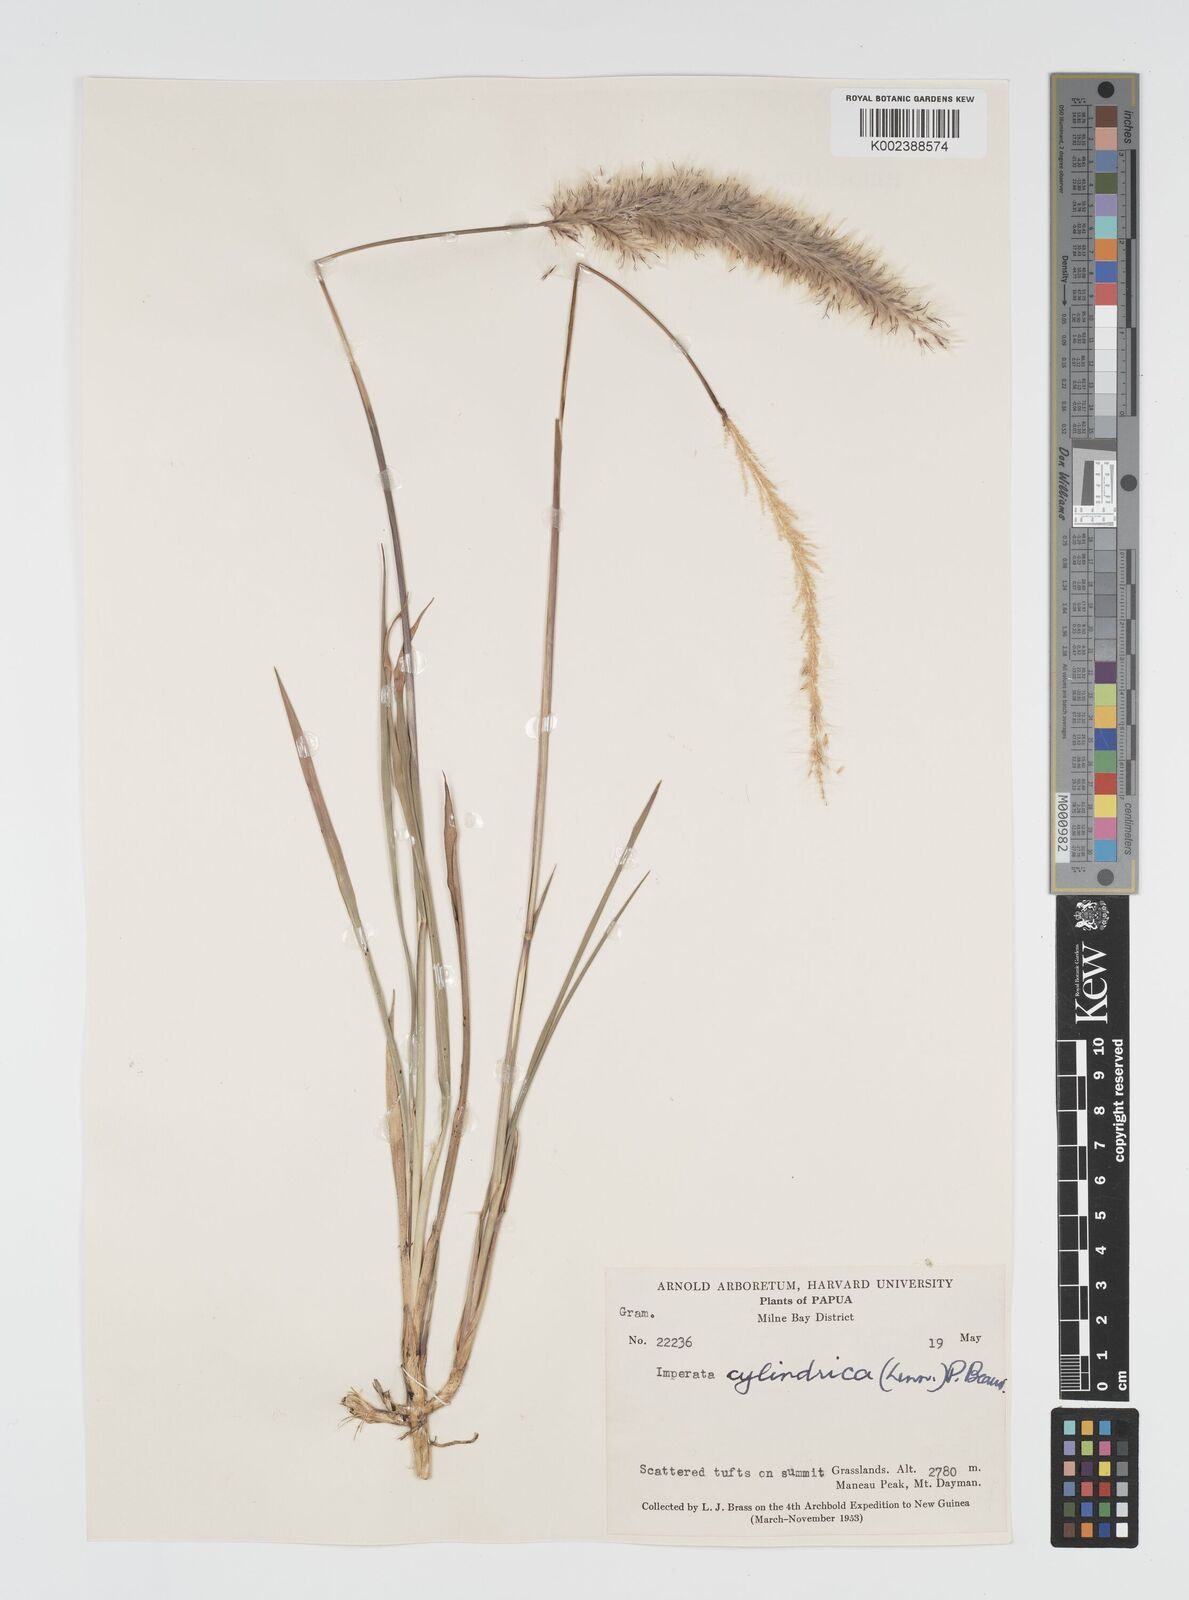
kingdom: Plantae
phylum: Tracheophyta
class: Liliopsida
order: Poales
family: Poaceae
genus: Imperata
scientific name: Imperata cylindrica
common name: Cogongrass
